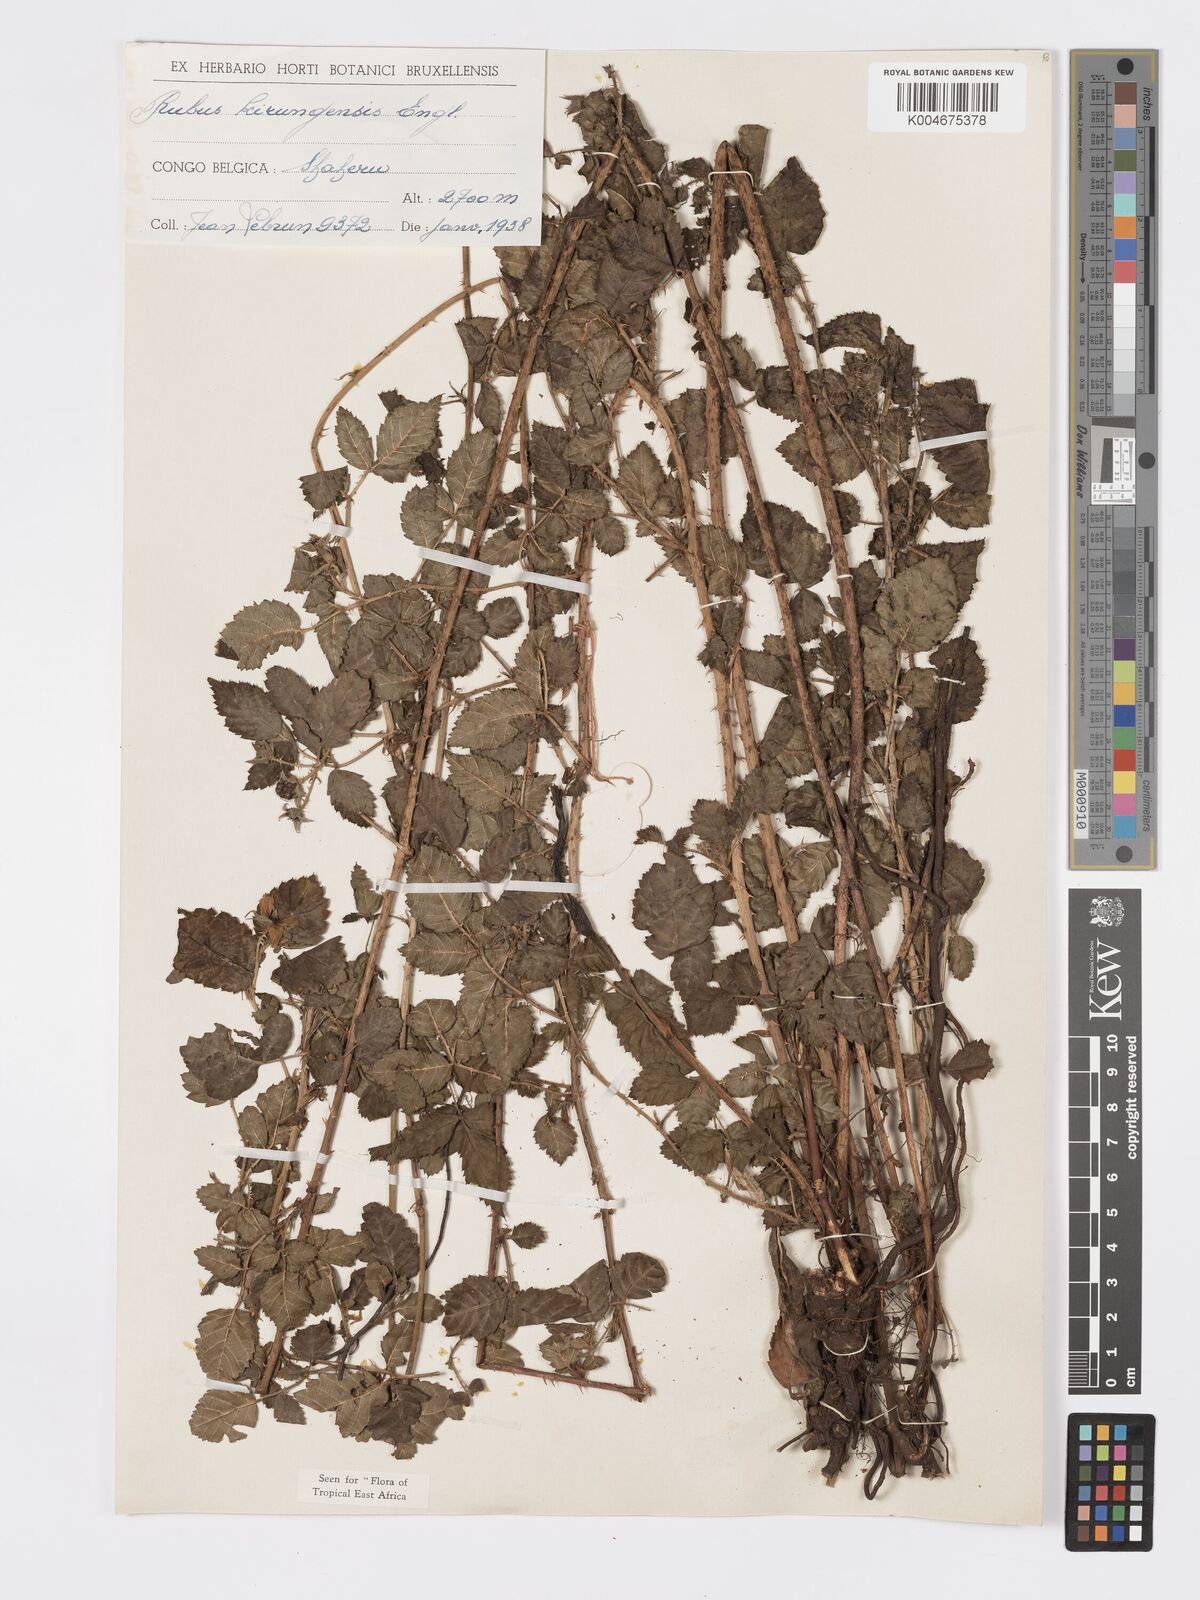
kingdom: Plantae
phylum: Tracheophyta
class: Magnoliopsida
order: Rosales
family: Rosaceae
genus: Rubus
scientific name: Rubus kirungensis
